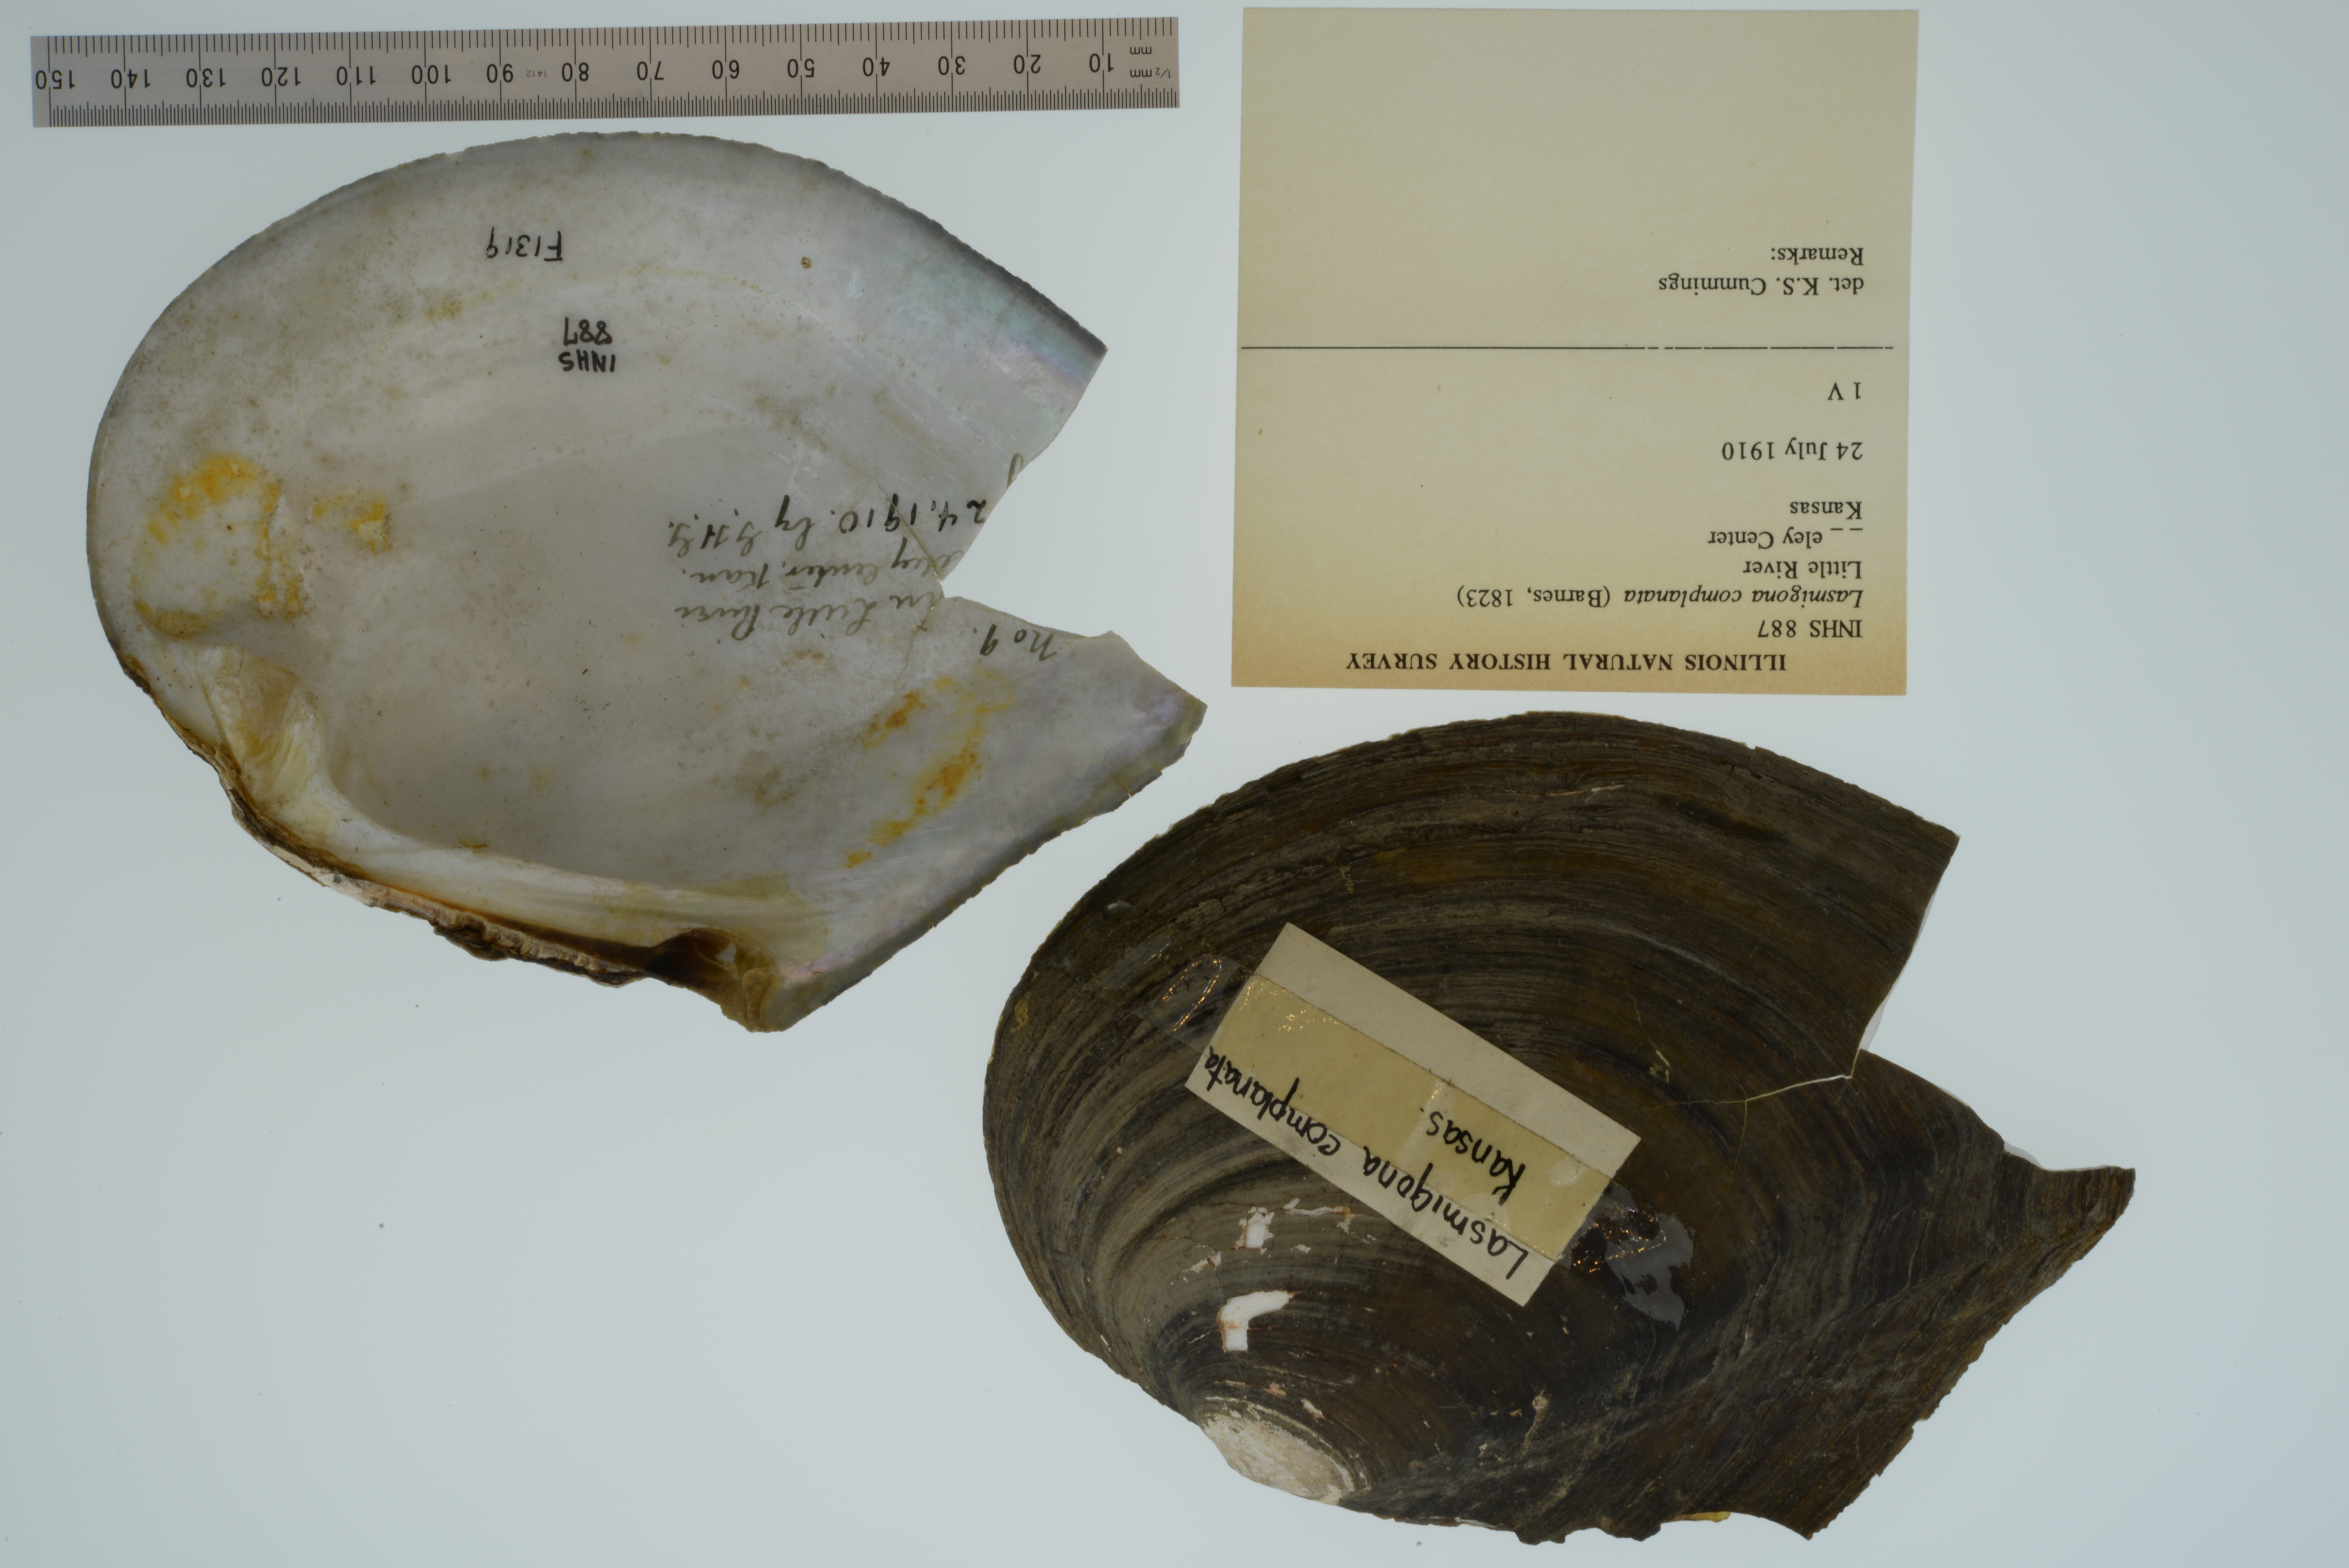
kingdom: Animalia
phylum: Mollusca
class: Bivalvia
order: Unionida
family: Unionidae
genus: Lasmigona
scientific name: Lasmigona complanata
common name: White heelsplitter
